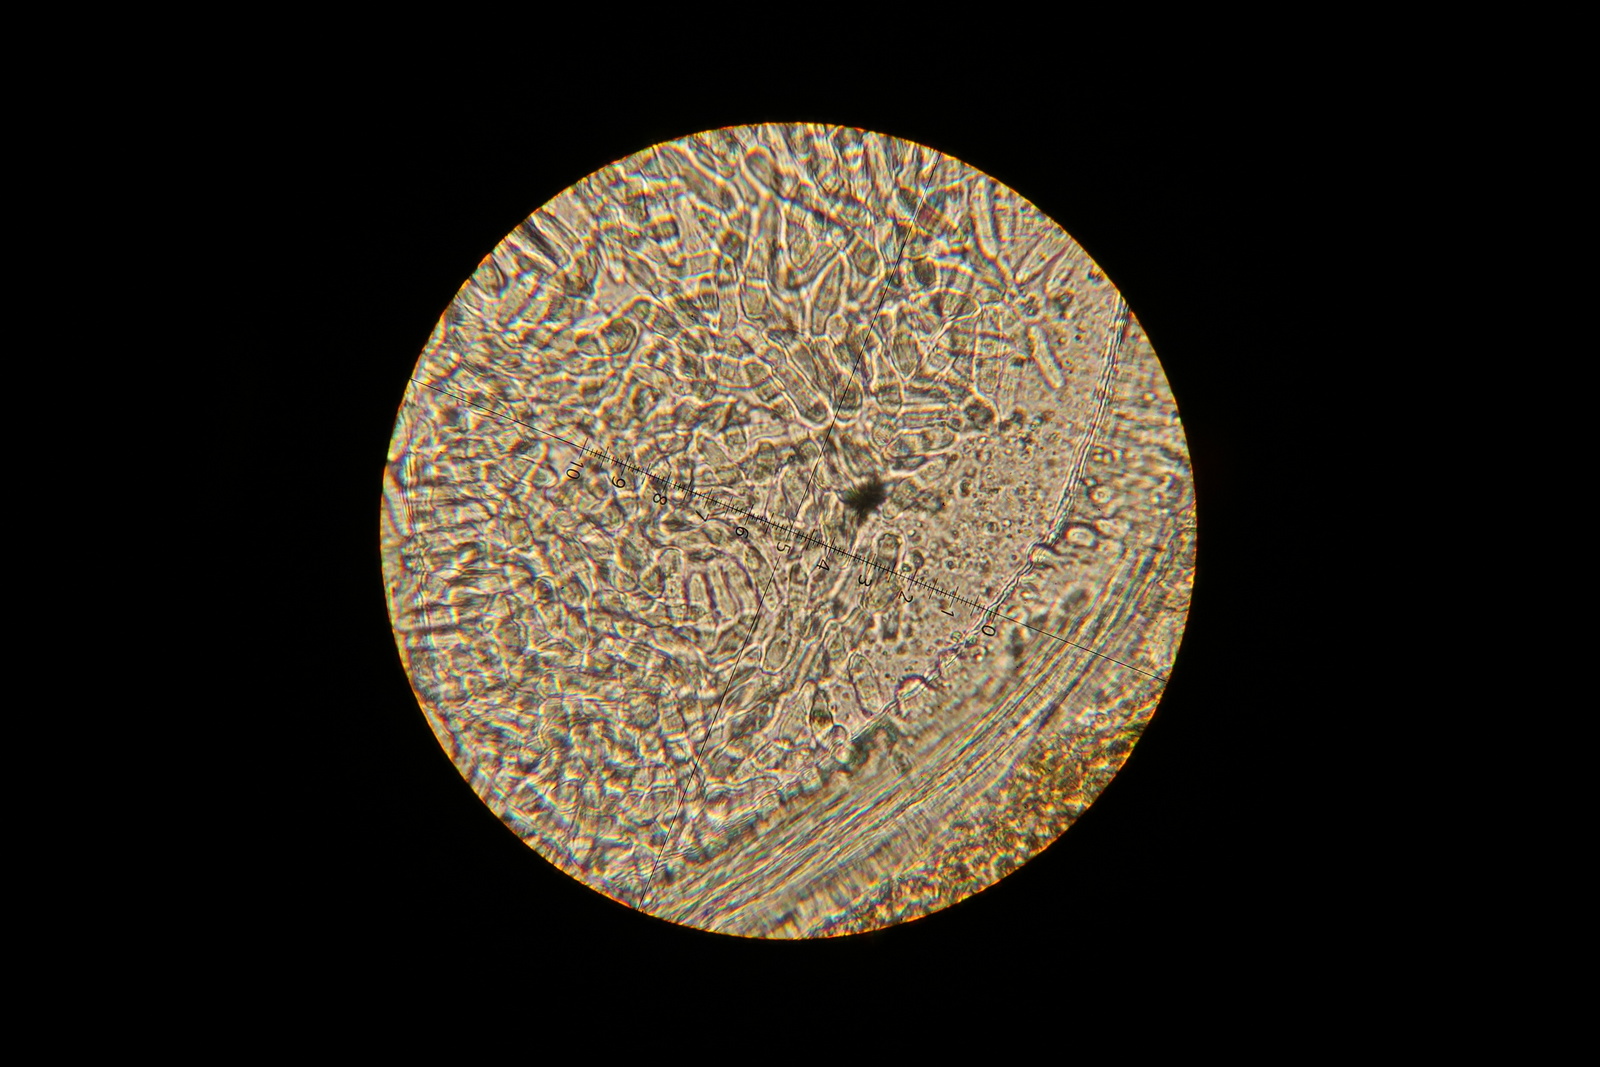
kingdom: Fungi
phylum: Ascomycota
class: Dothideomycetes
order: Pleosporales
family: Didymellaceae
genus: Stagonosporopsis
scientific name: Stagonosporopsis aquilegiae
